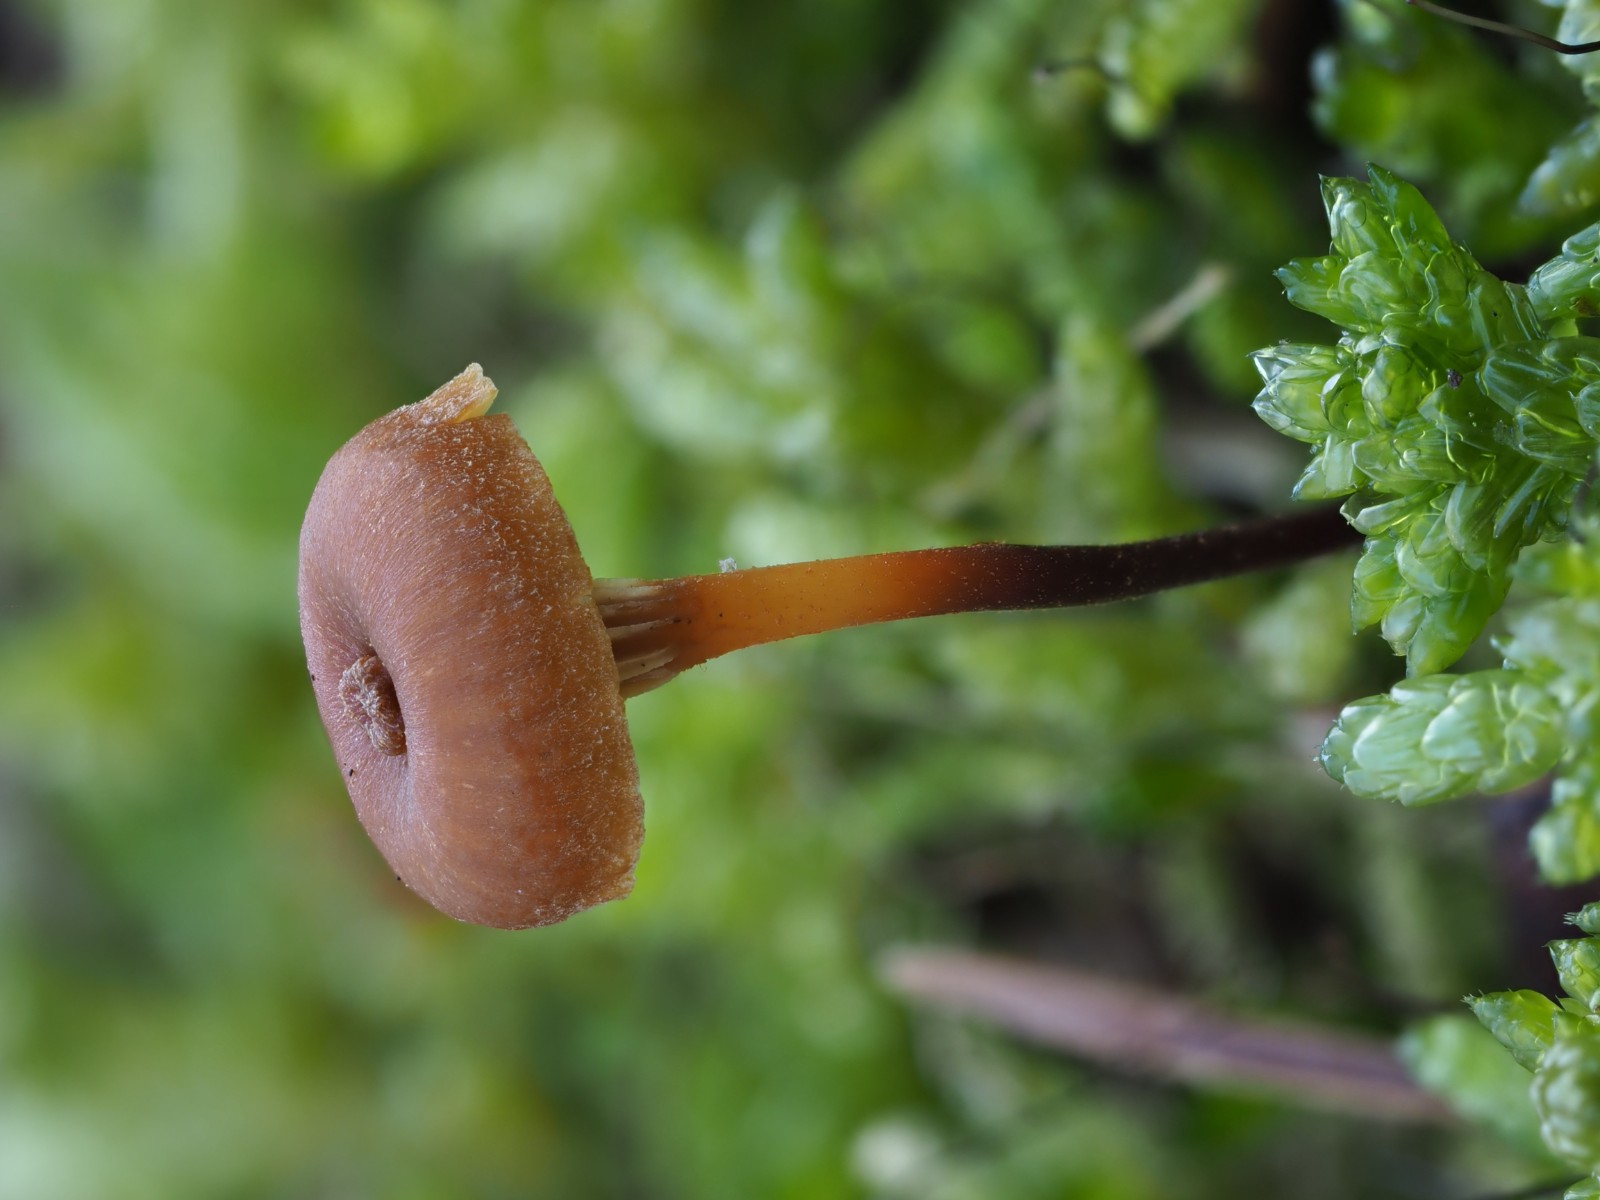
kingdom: Fungi
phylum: Basidiomycota
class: Agaricomycetes
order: Agaricales
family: Mycenaceae
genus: Xeromphalina
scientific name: Xeromphalina
